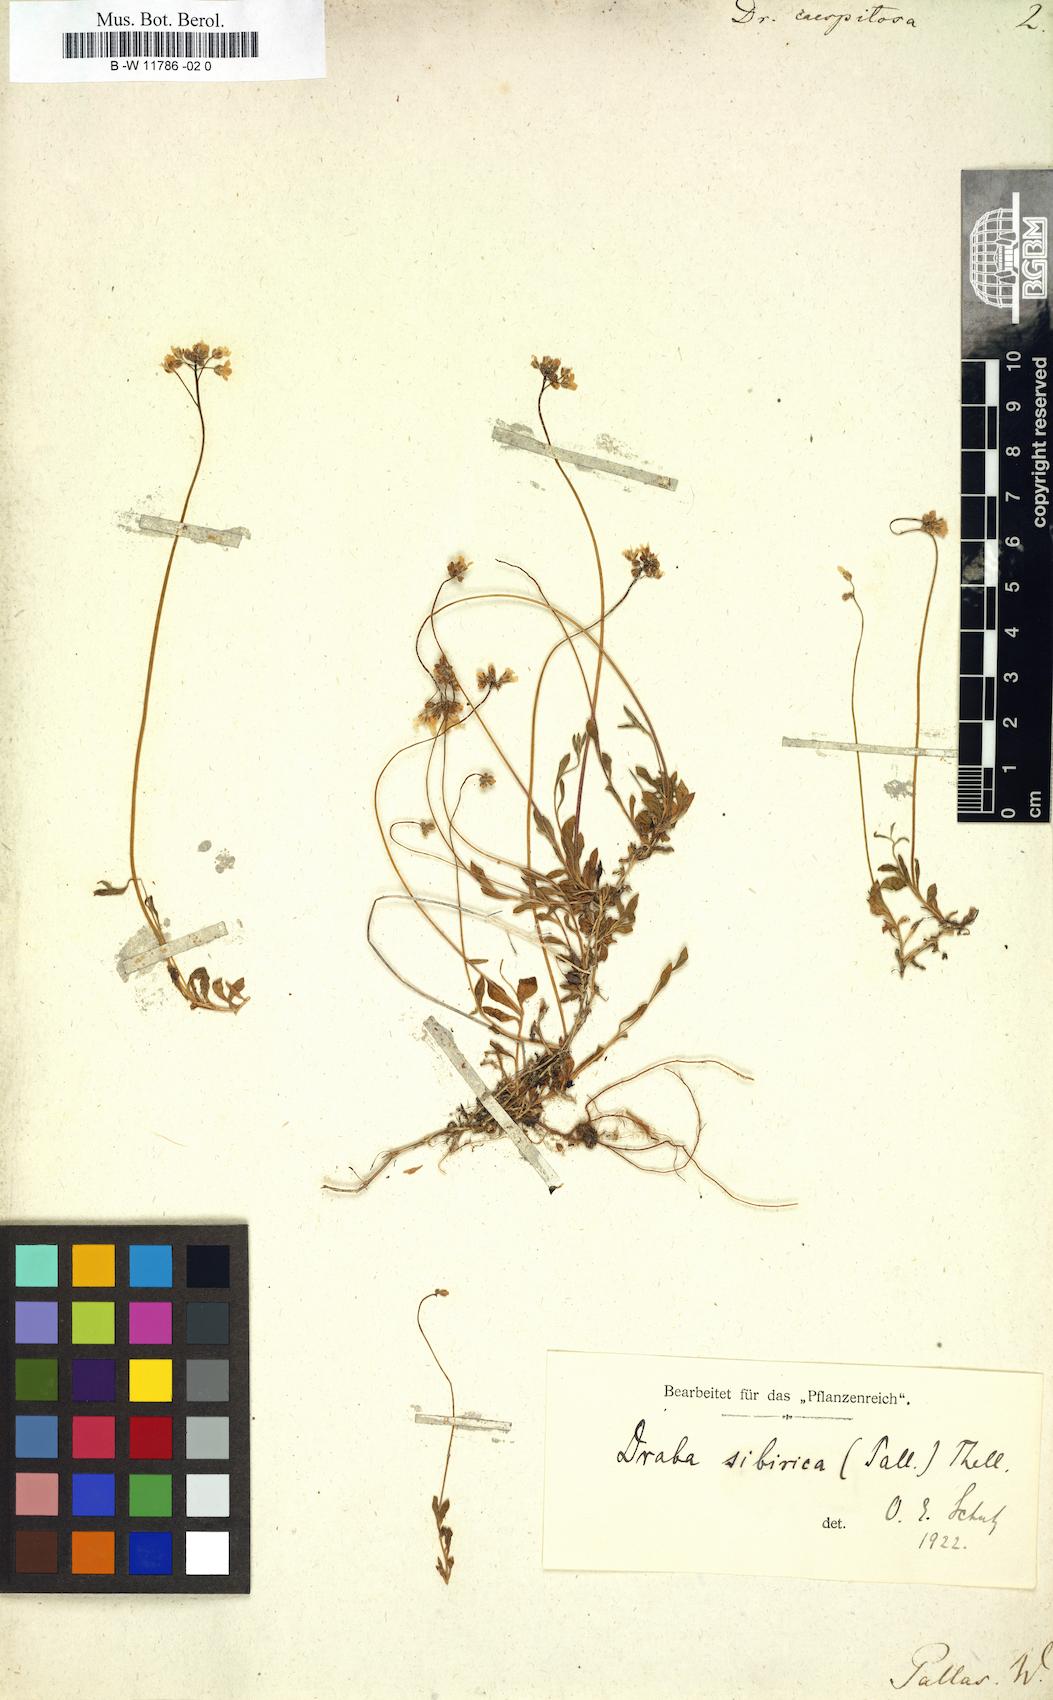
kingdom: Plantae
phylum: Tracheophyta
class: Magnoliopsida
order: Brassicales
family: Brassicaceae
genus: Draba
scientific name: Draba caespitosa
